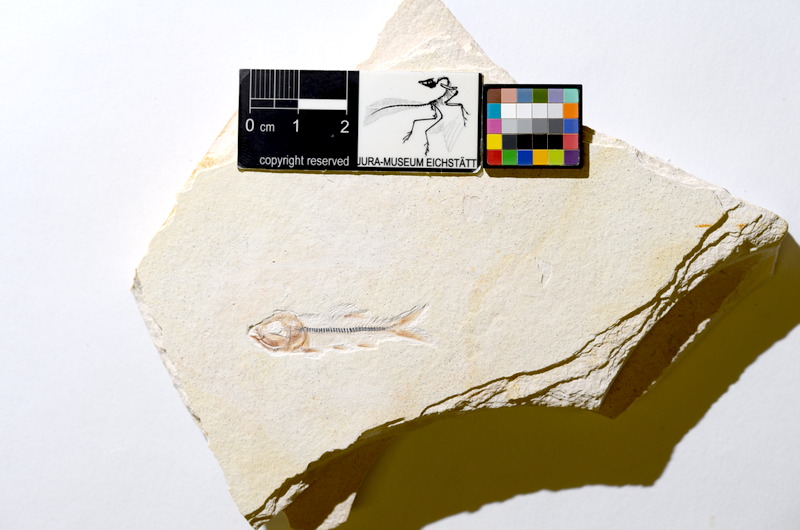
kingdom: Animalia
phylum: Chordata
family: Ascalaboidae
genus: Ebertichthys
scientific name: Ebertichthys ettlingensis
